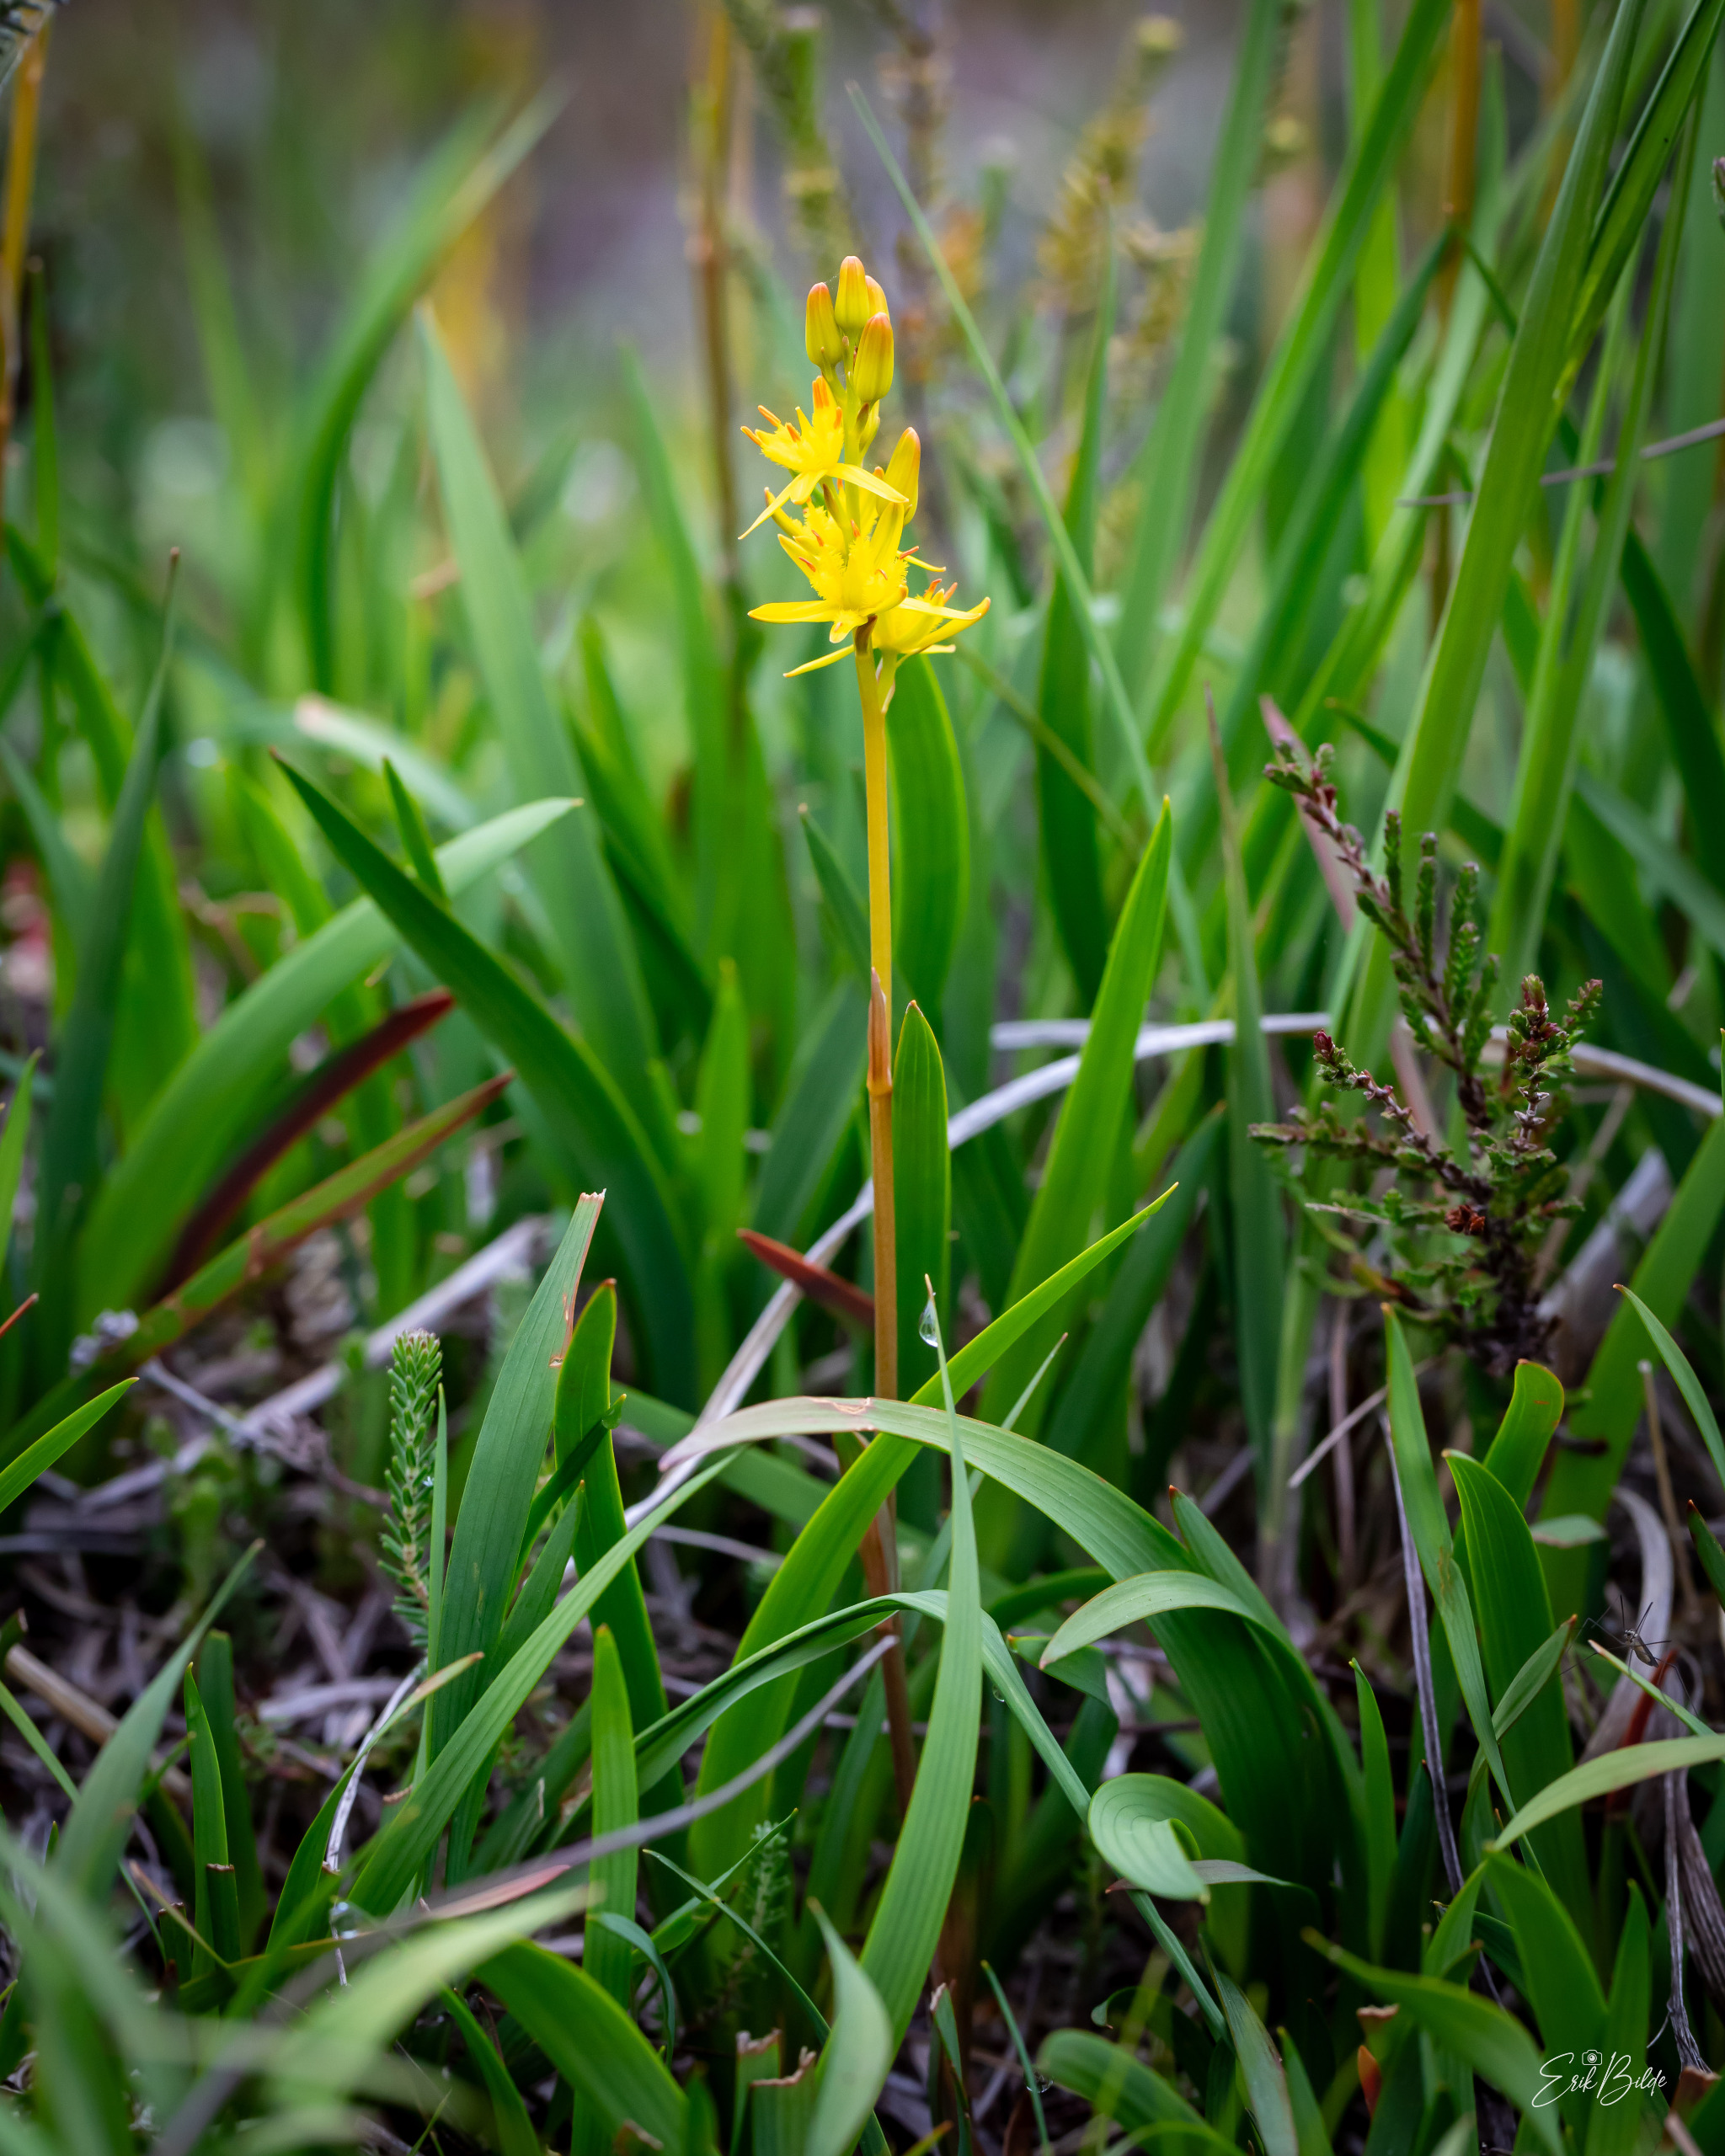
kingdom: Plantae
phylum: Tracheophyta
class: Liliopsida
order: Dioscoreales
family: Nartheciaceae
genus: Narthecium
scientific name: Narthecium ossifragum
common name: Benbræk
